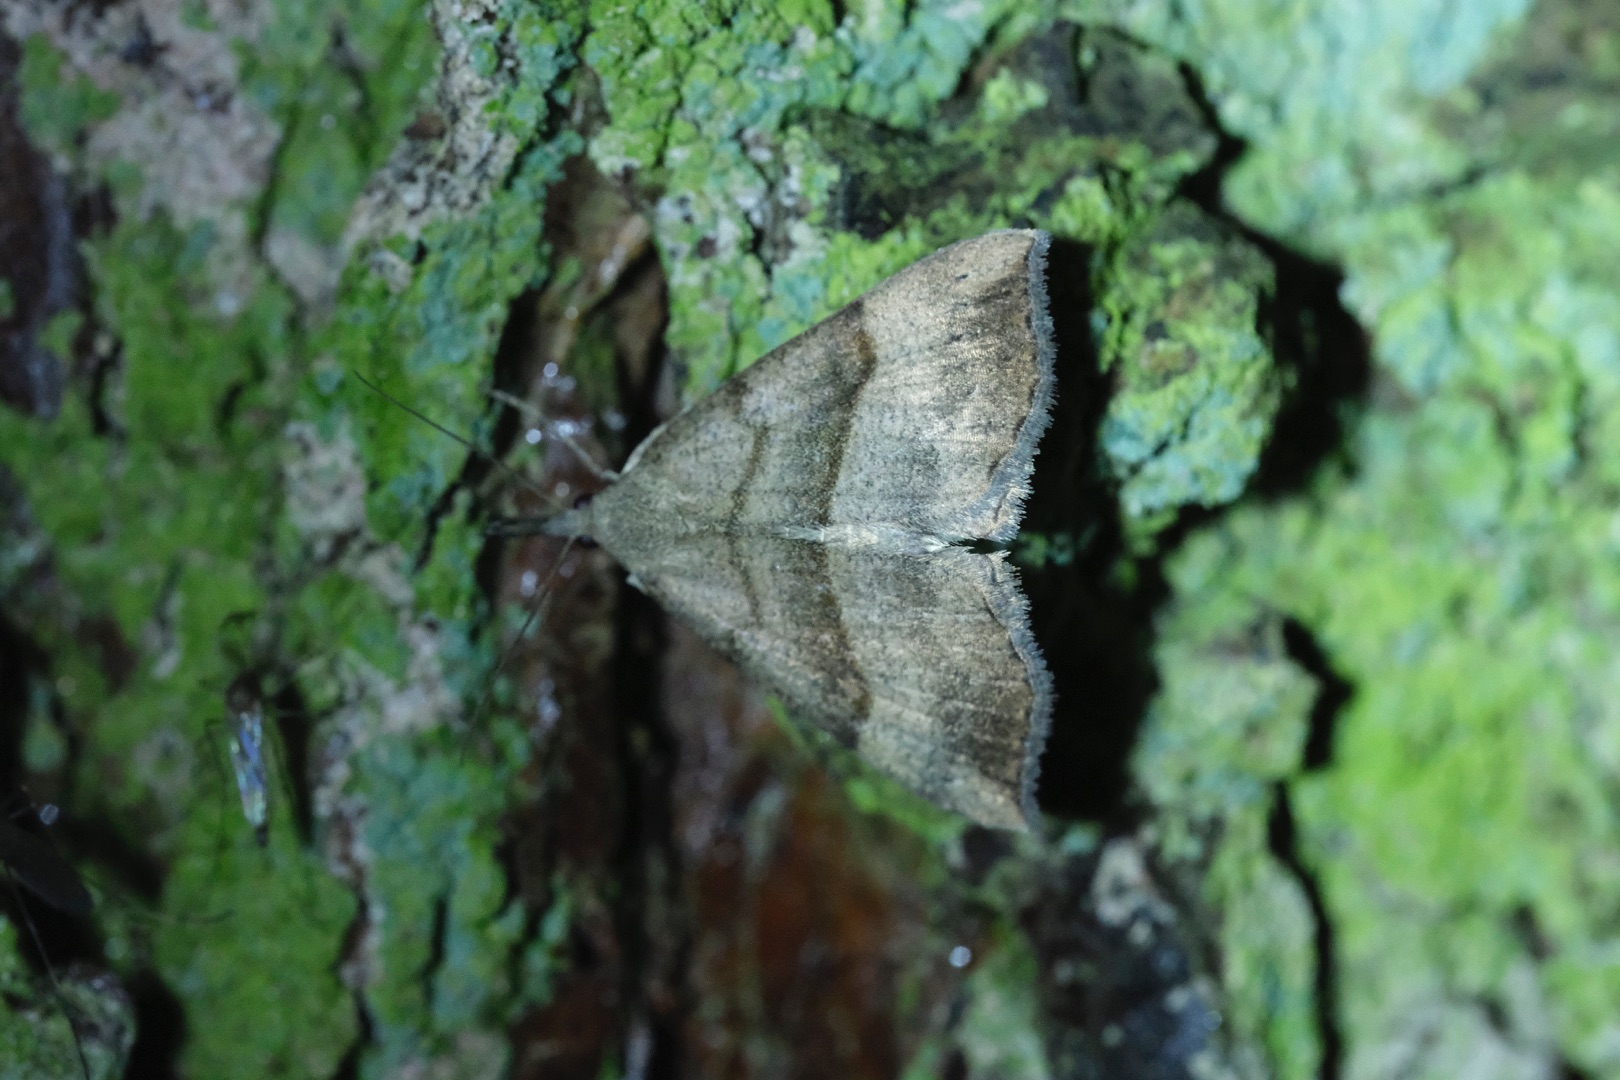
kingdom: Animalia
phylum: Arthropoda
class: Insecta
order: Lepidoptera
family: Erebidae
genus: Hypena
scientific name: Hypena proboscidalis
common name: Snudeugle
